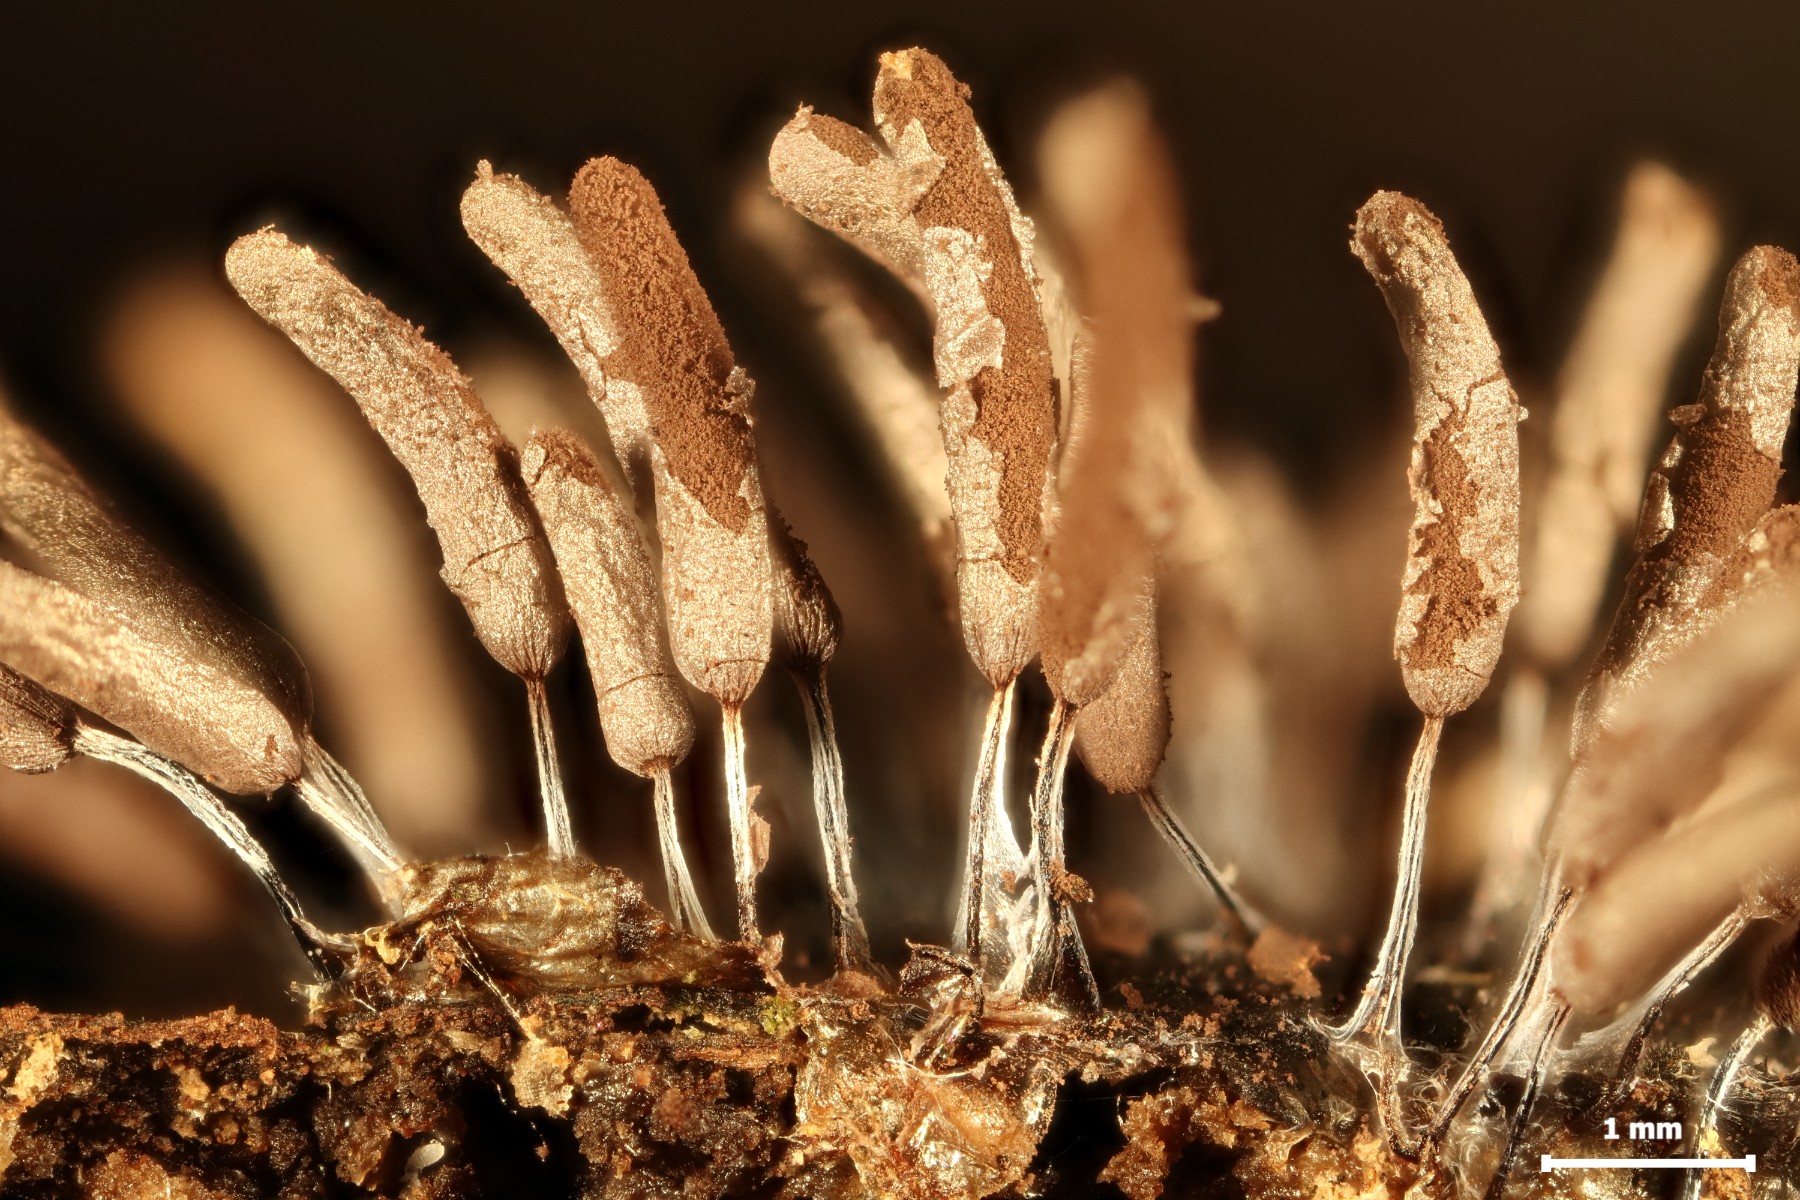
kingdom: Protozoa
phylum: Mycetozoa
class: Myxomycetes
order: Stemonitidales
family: Stemonitidaceae
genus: Stemonitopsis
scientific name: Stemonitopsis typhina
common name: skinnende støvkølle
